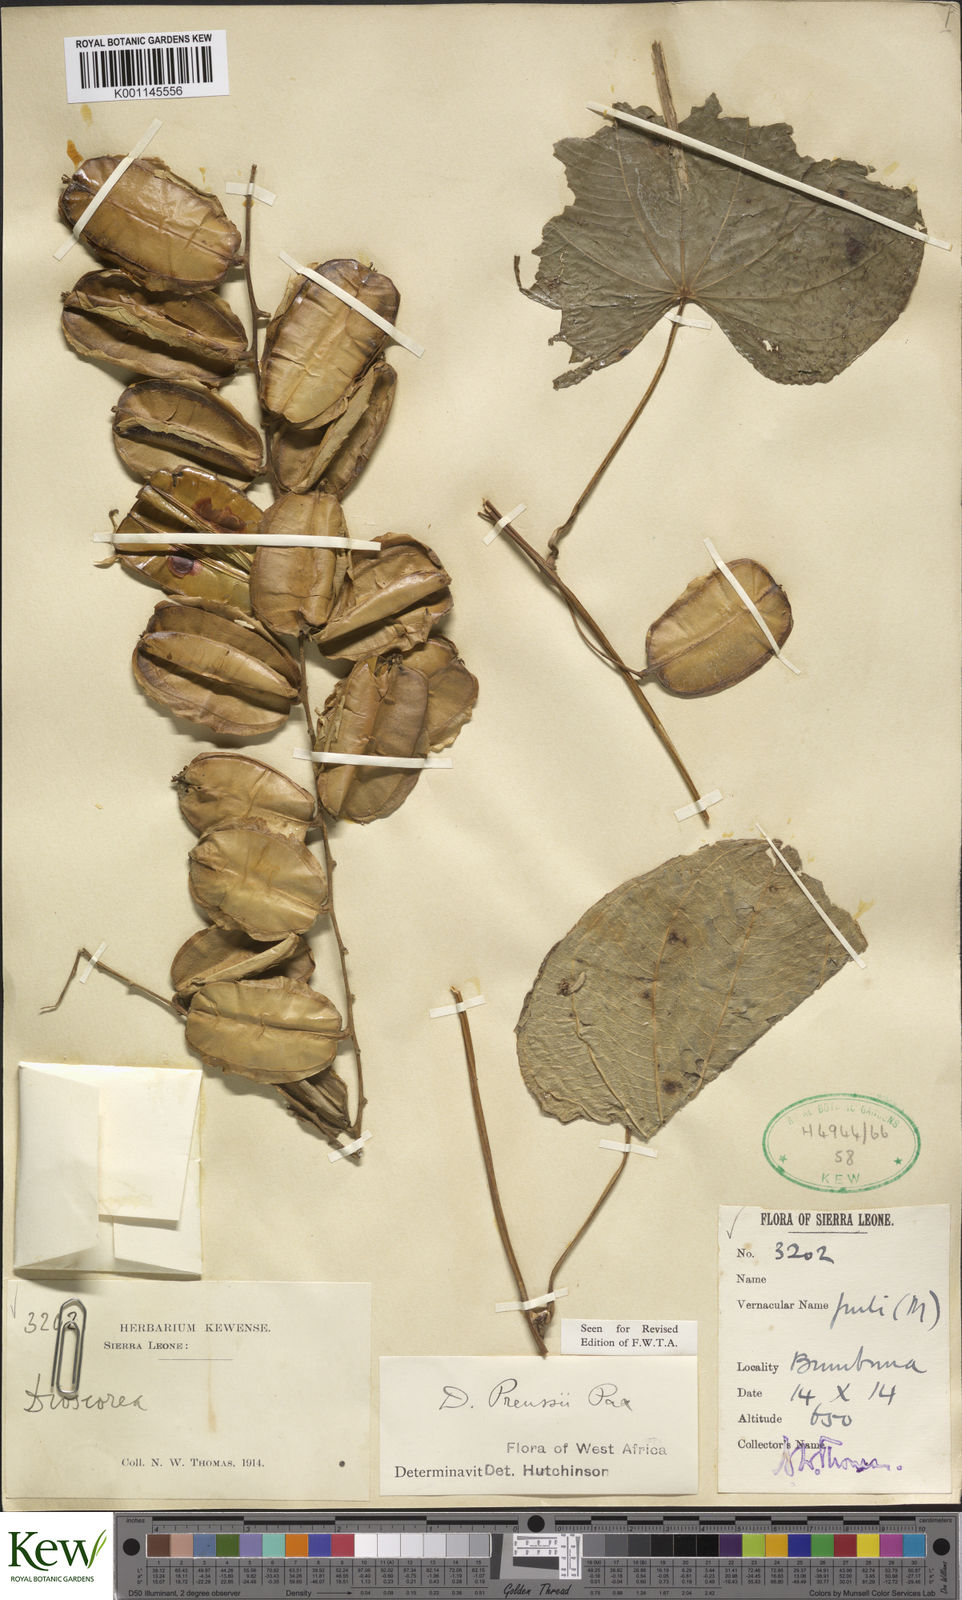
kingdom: Plantae
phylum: Tracheophyta
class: Liliopsida
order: Dioscoreales
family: Dioscoreaceae
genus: Dioscorea
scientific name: Dioscorea preussii
